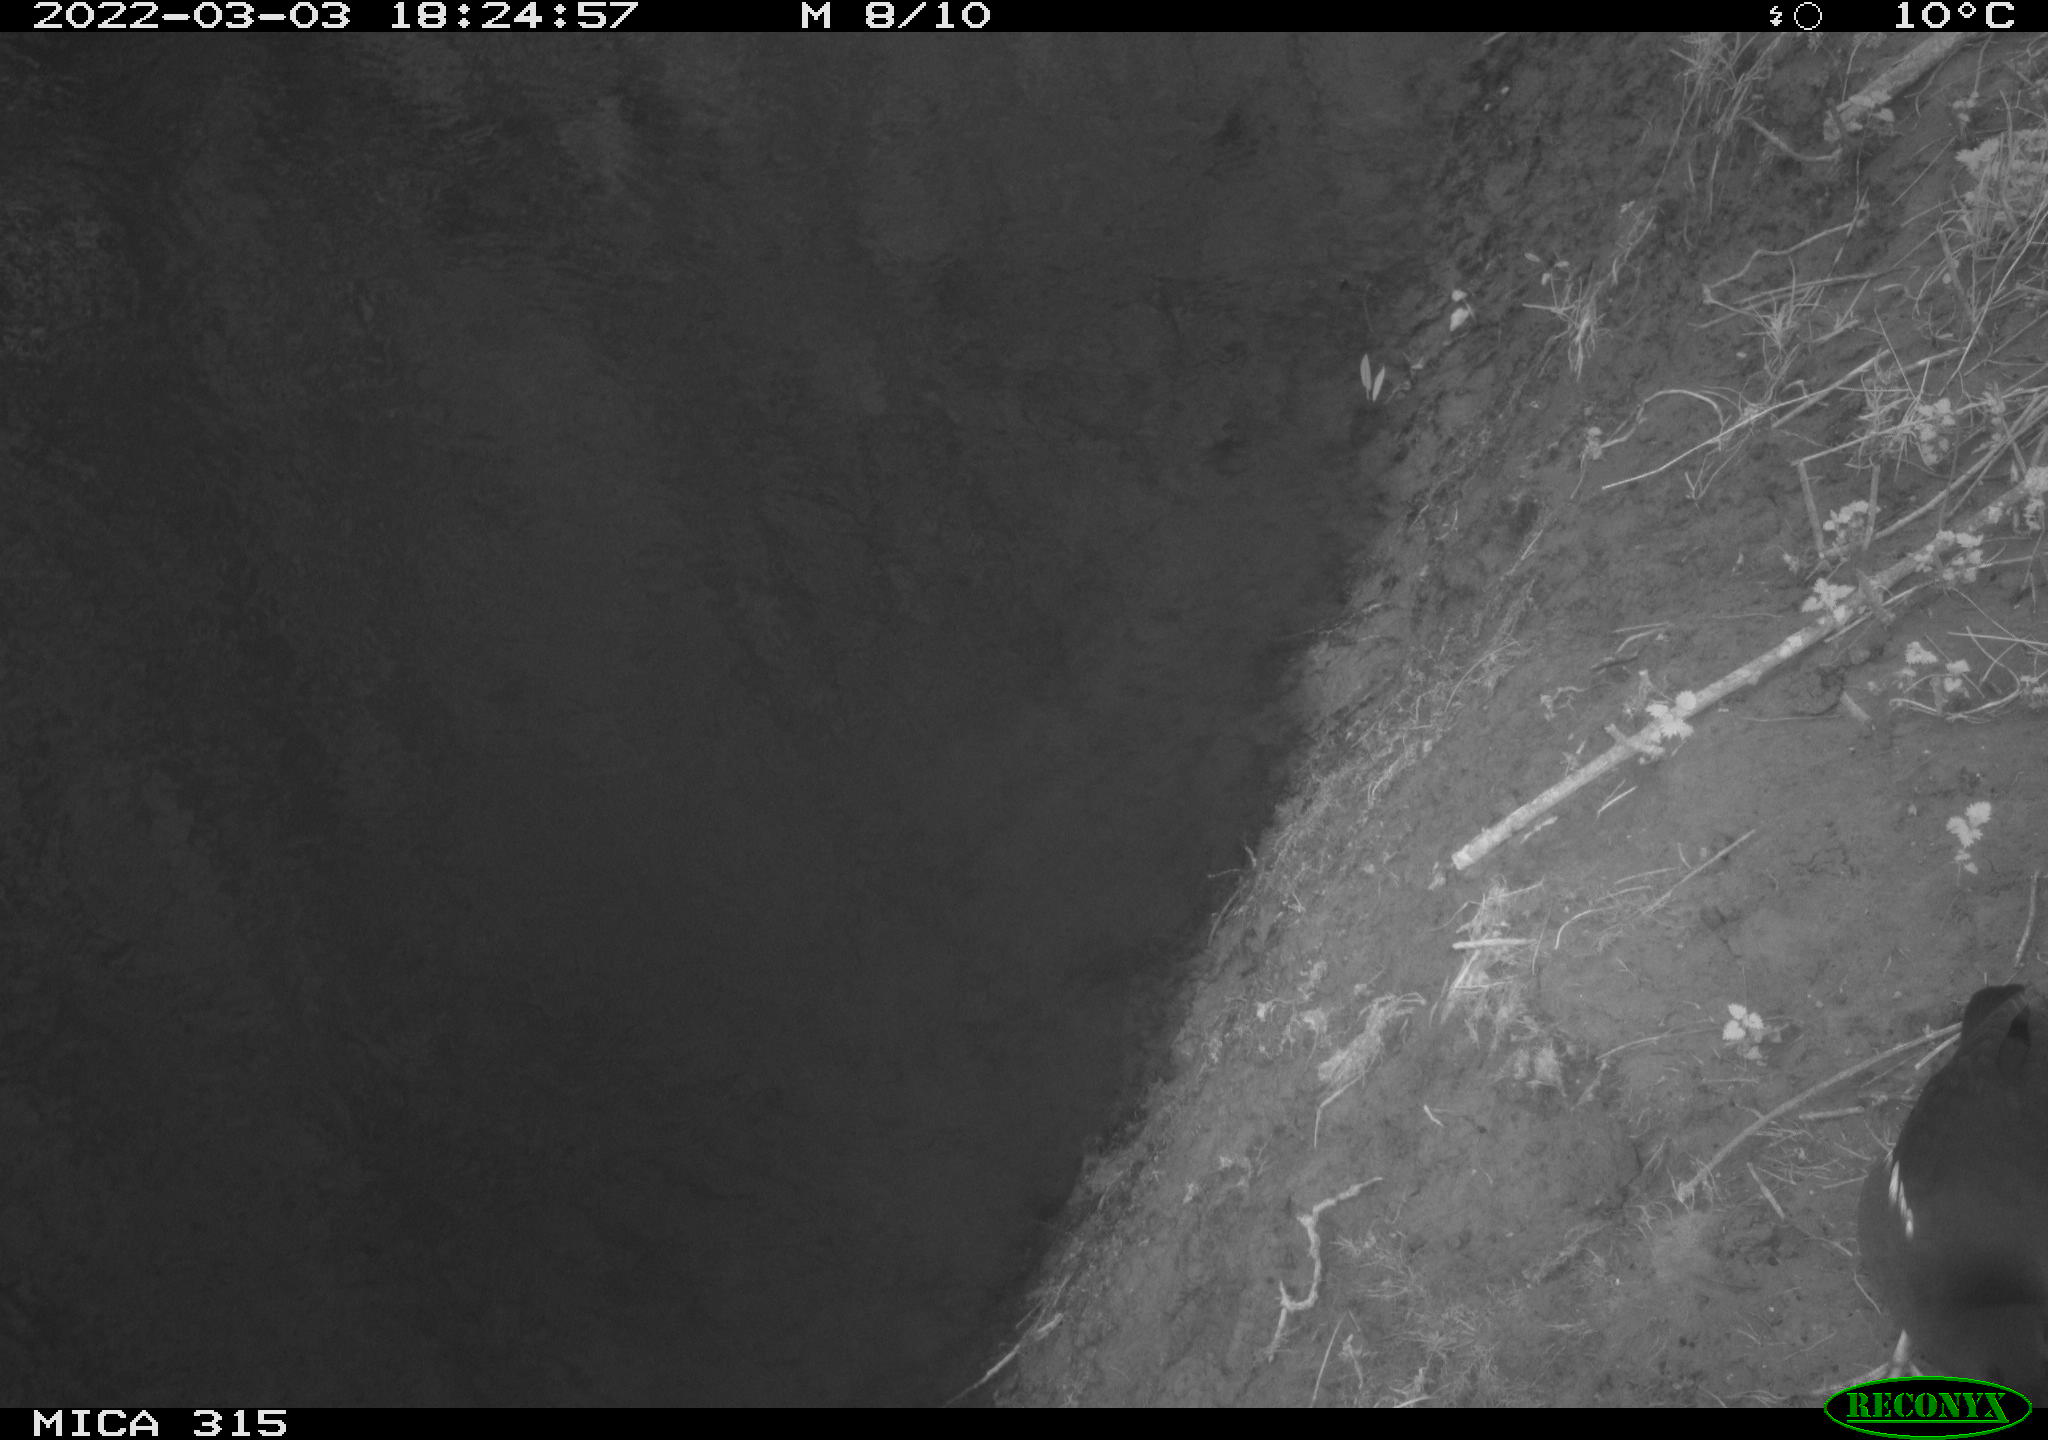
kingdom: Animalia
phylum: Chordata
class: Aves
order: Gruiformes
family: Rallidae
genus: Gallinula
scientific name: Gallinula chloropus
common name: Common moorhen
